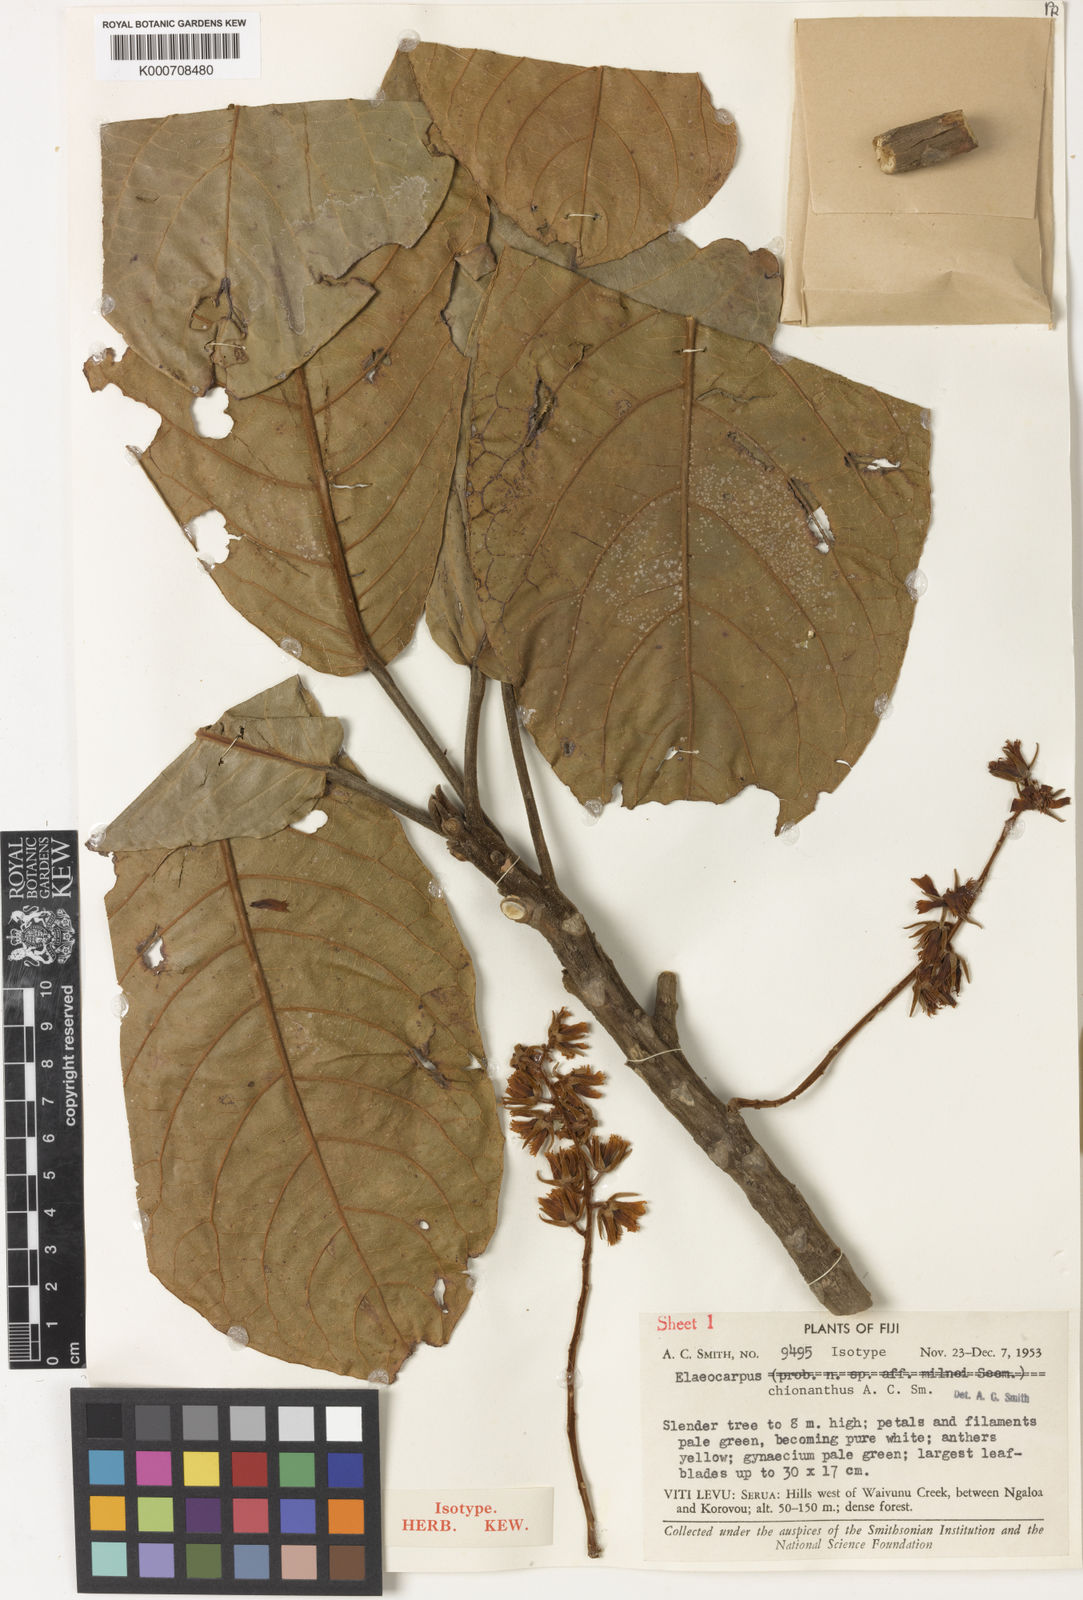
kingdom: Plantae
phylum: Tracheophyta
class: Magnoliopsida
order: Oxalidales
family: Elaeocarpaceae
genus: Elaeocarpus
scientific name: Elaeocarpus chionanthus
